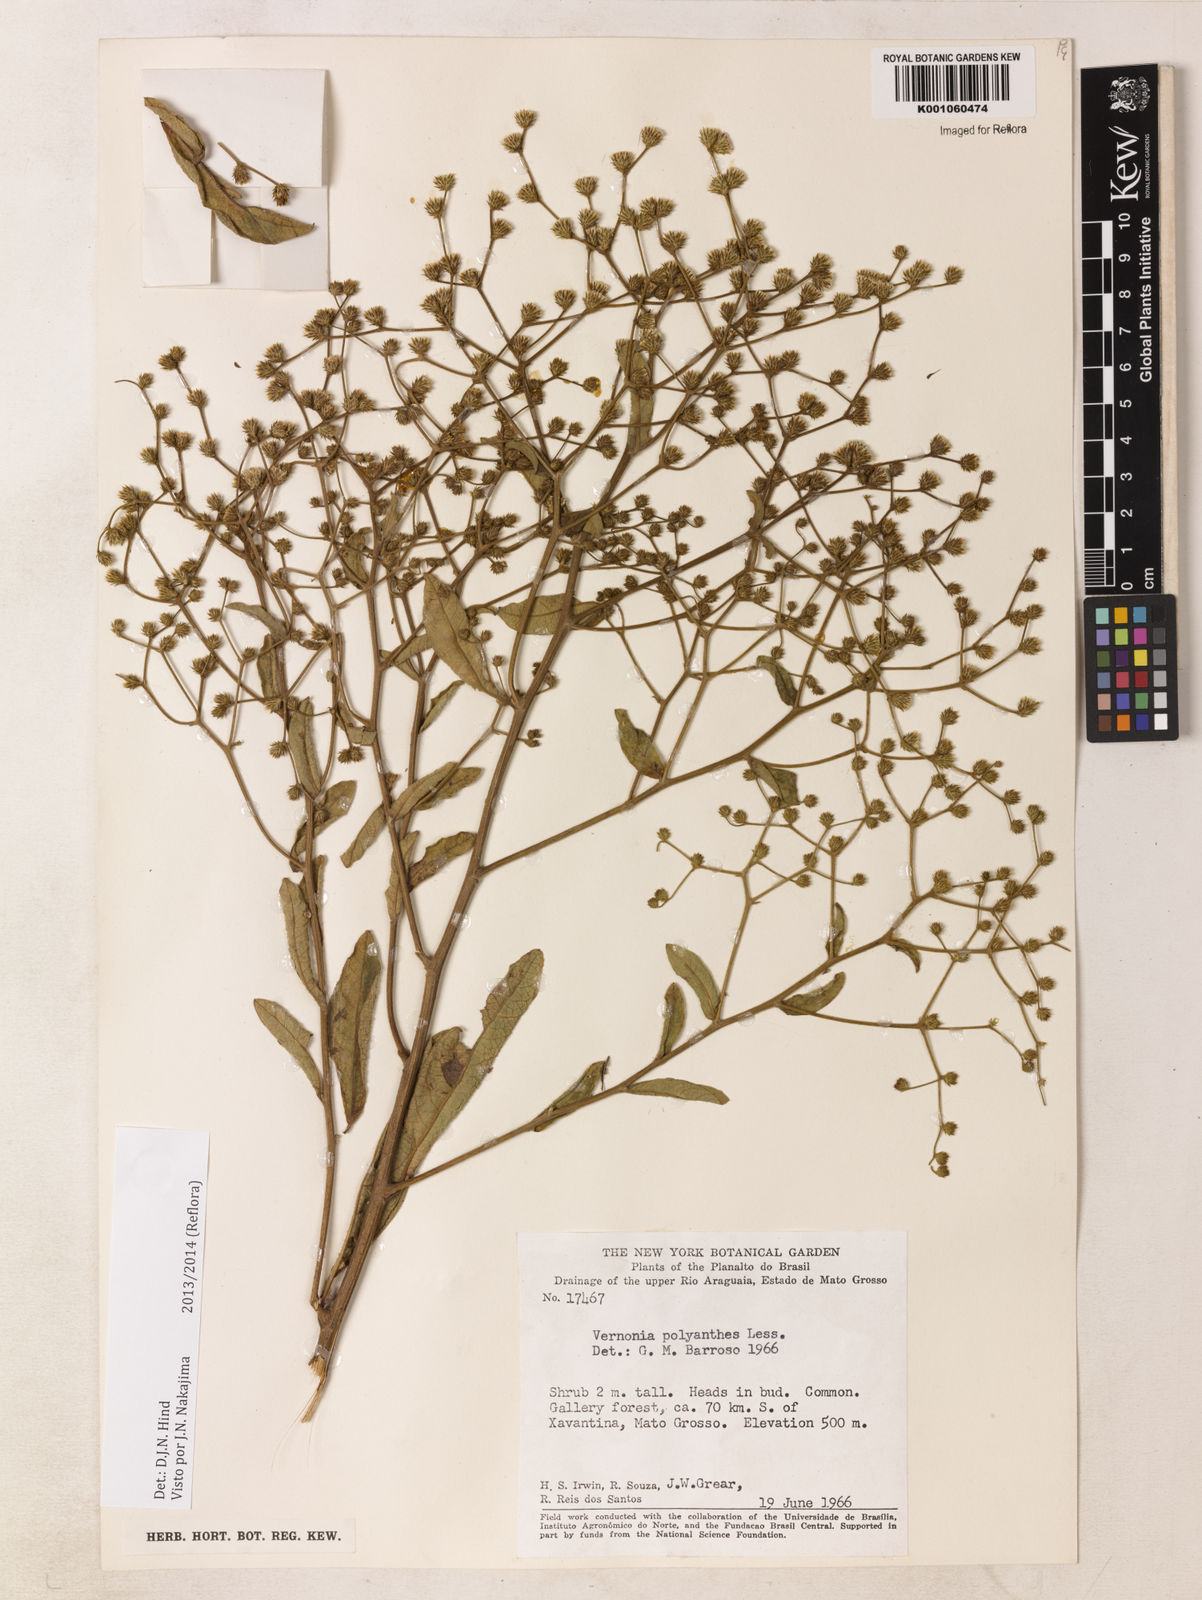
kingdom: Plantae
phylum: Tracheophyta
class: Magnoliopsida
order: Asterales
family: Asteraceae
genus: Vernonanthura
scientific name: Vernonanthura cymosa
